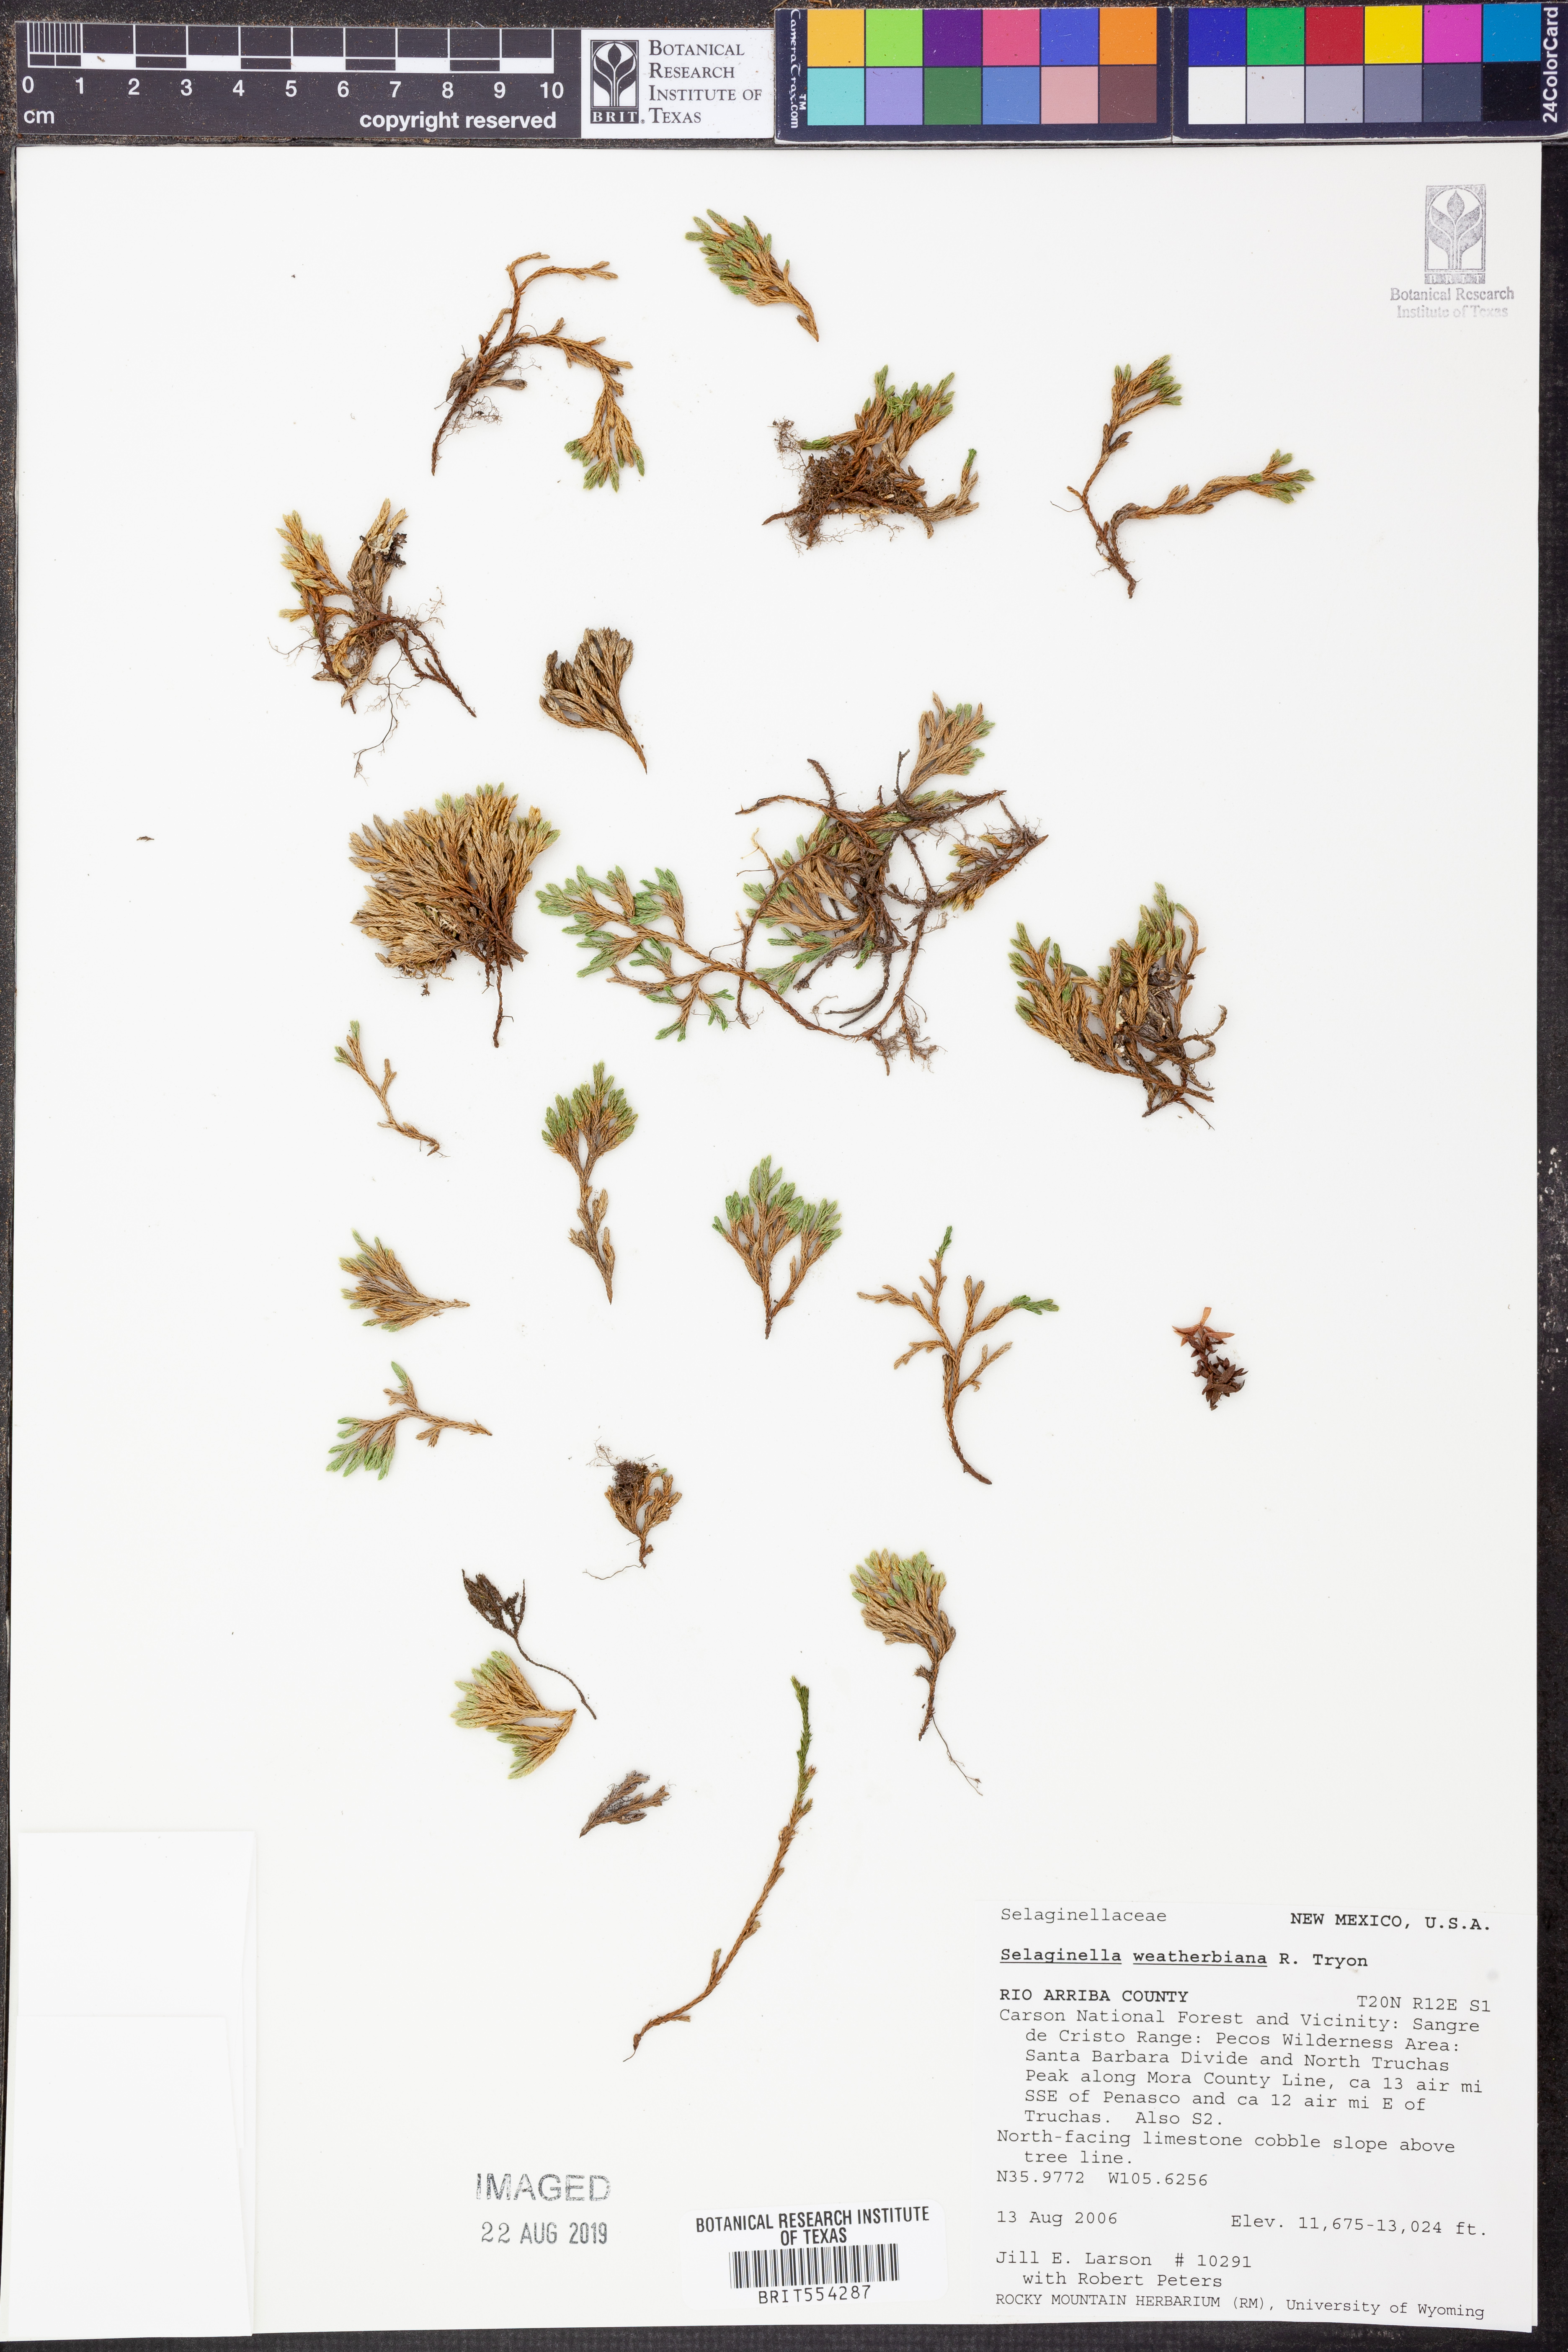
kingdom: Plantae
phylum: Tracheophyta
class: Lycopodiopsida
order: Selaginellales
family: Selaginellaceae
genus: Selaginella
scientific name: Selaginella weatherbiana
